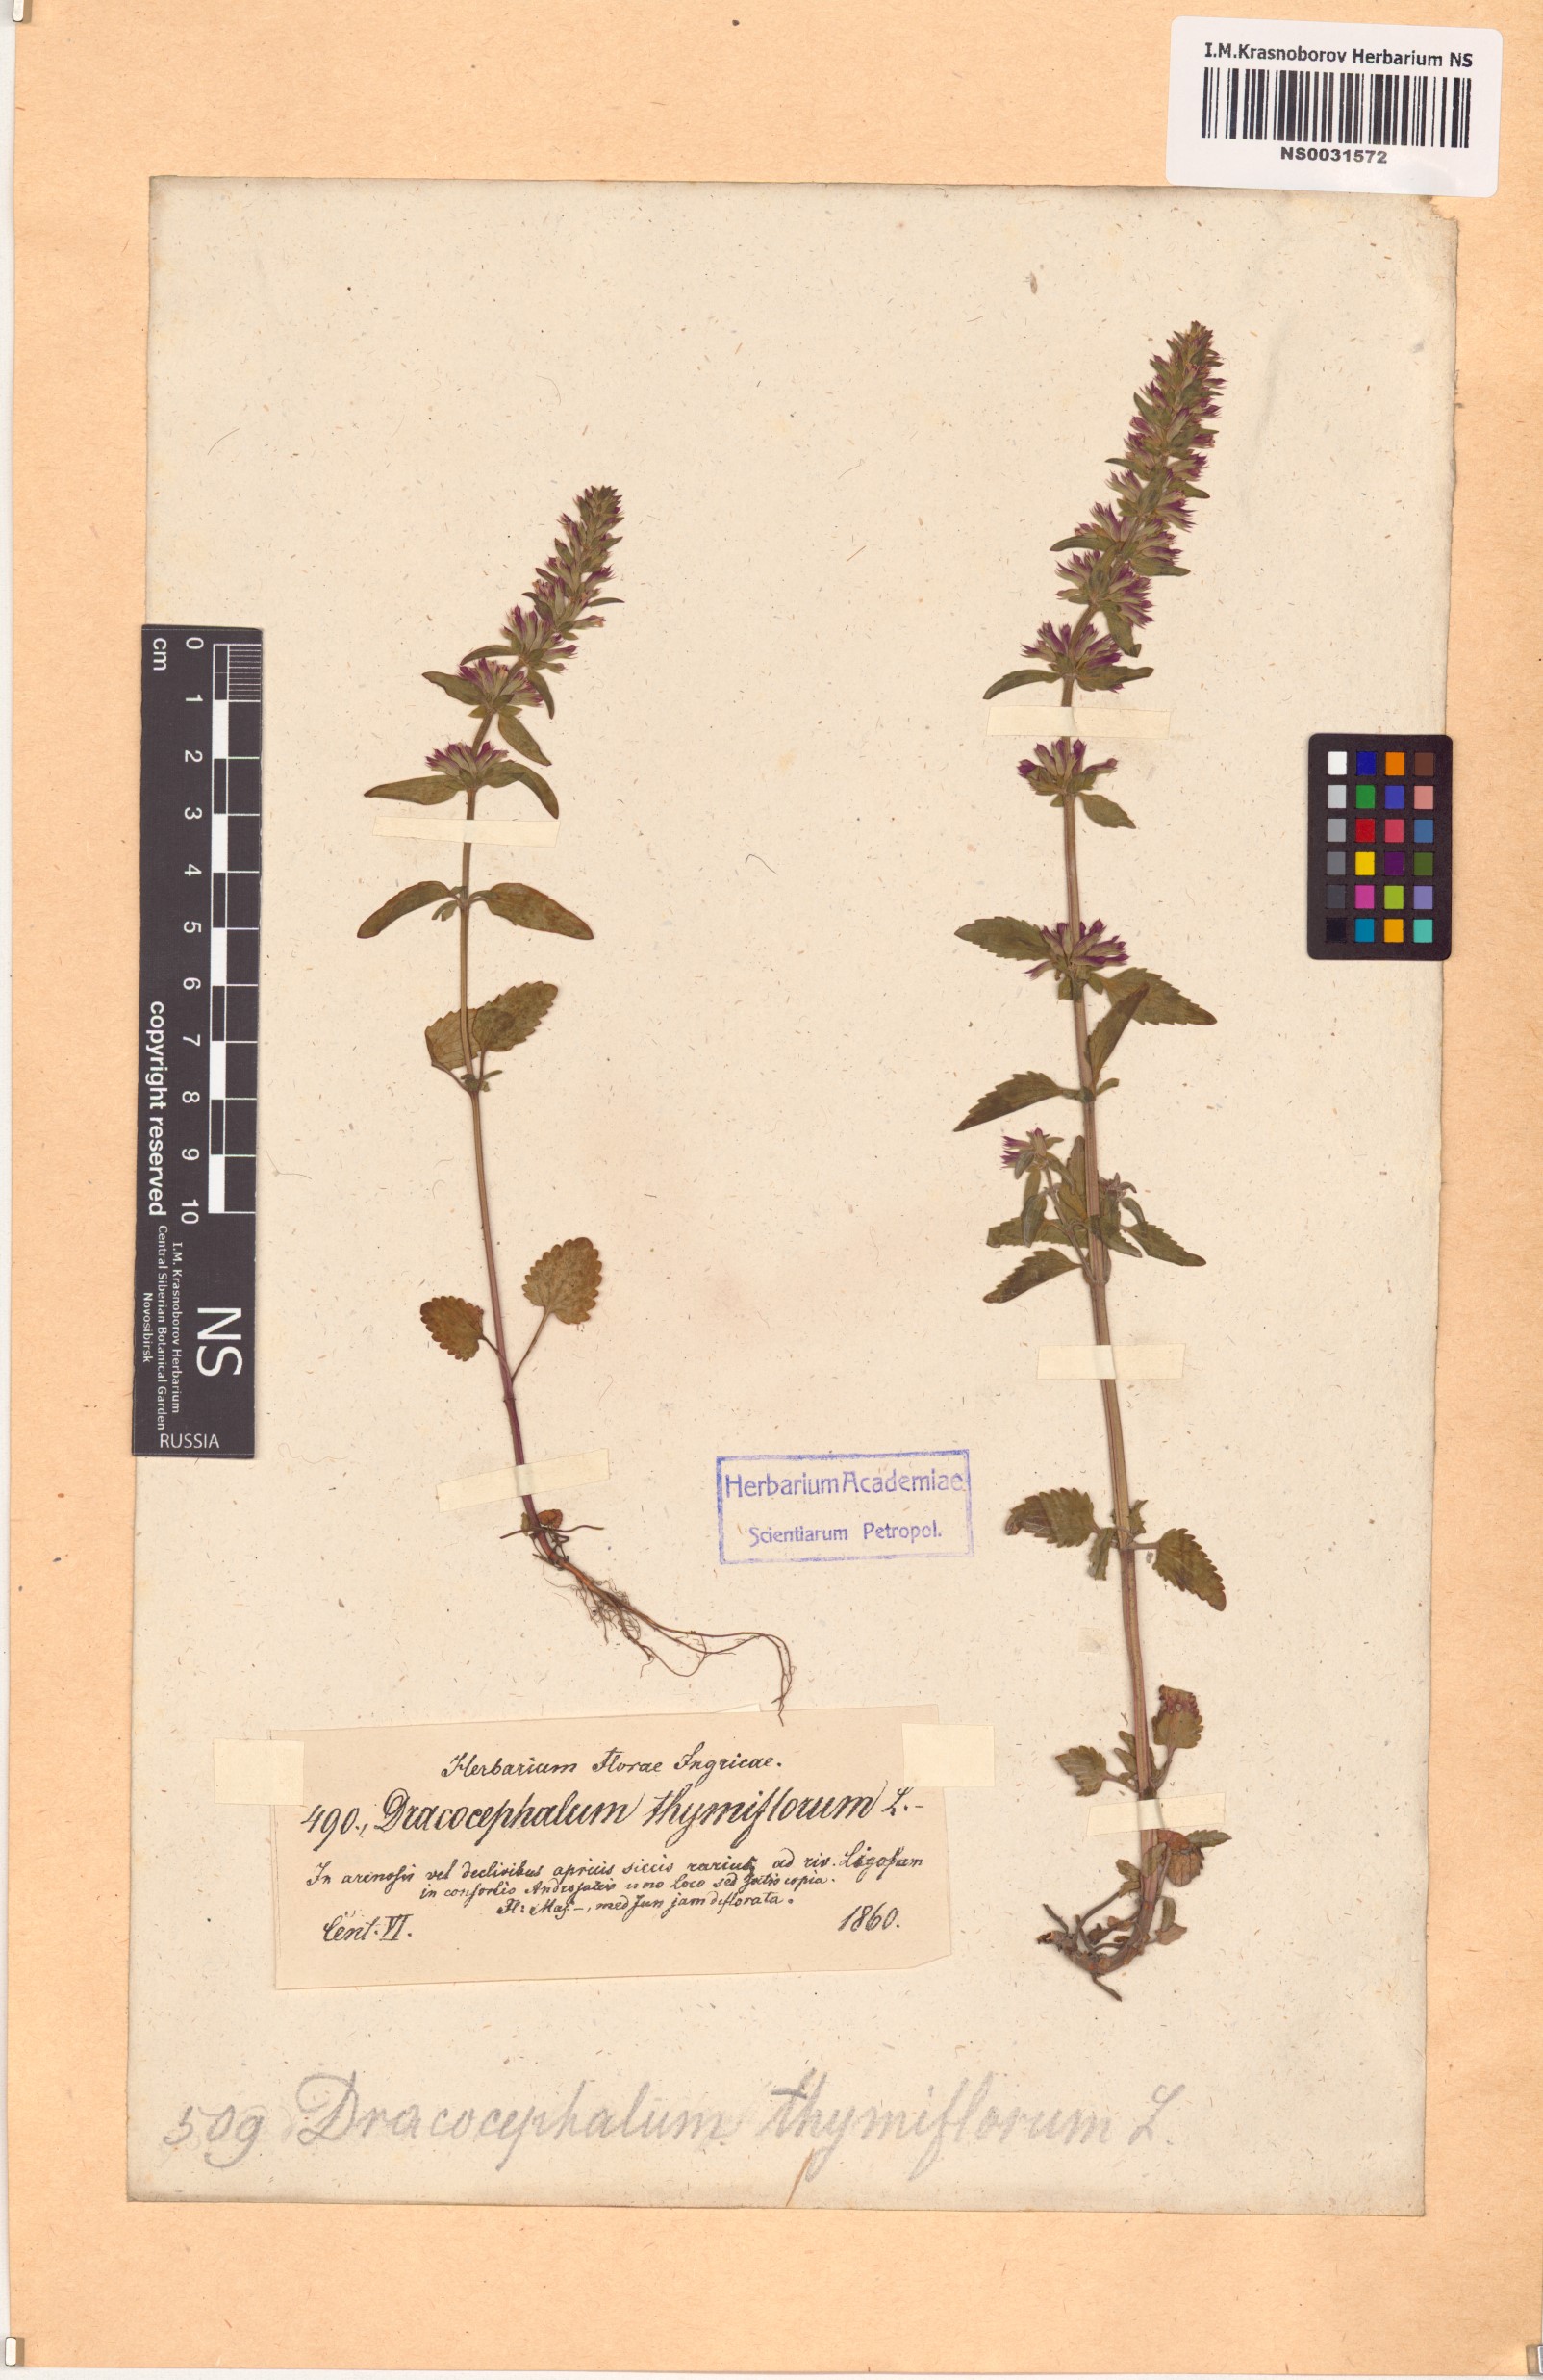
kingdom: Plantae
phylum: Tracheophyta
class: Magnoliopsida
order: Lamiales
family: Lamiaceae
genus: Dracocephalum
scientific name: Dracocephalum thymiflorum
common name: Thymeleaf dragonhead
